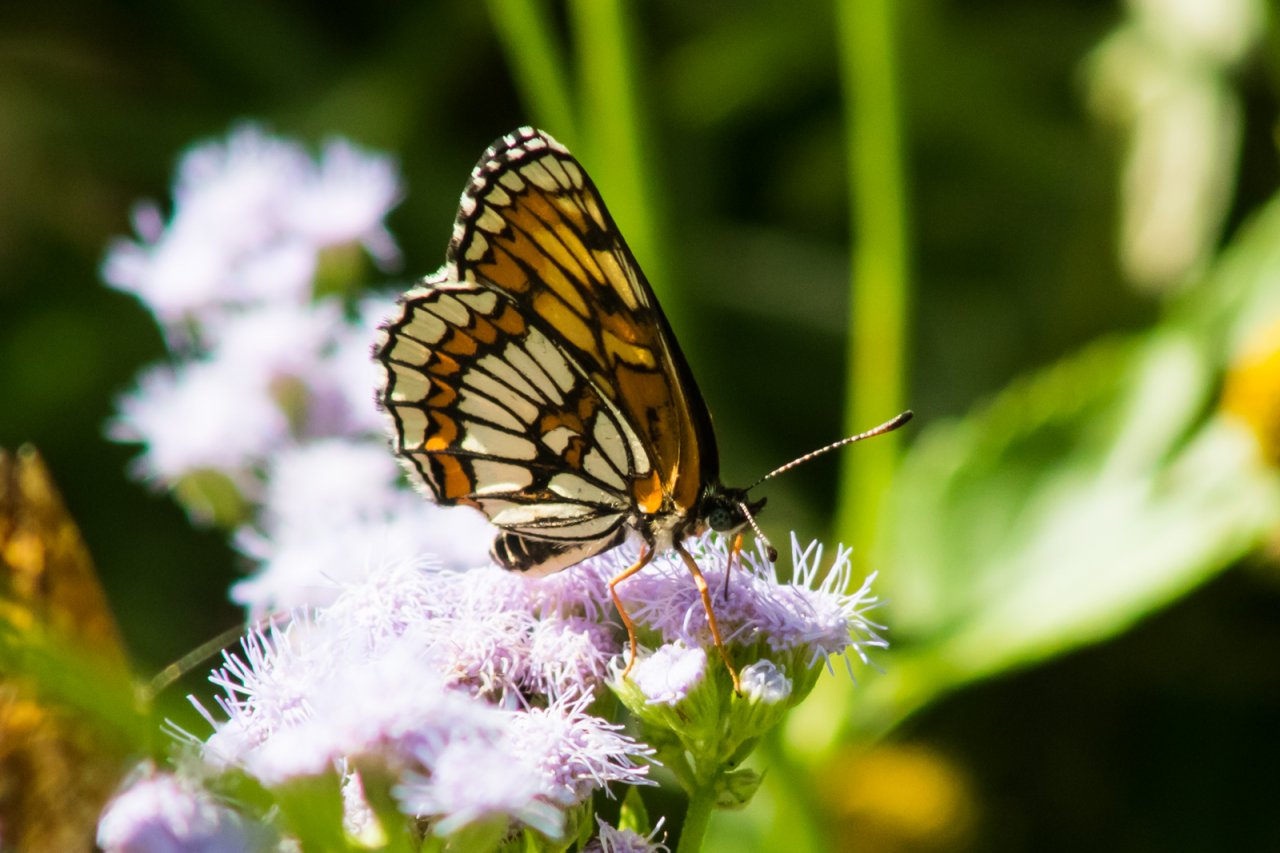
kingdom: Animalia
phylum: Arthropoda
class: Insecta
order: Lepidoptera
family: Nymphalidae
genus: Thessalia
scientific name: Thessalia theona
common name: Theona Checkerspot
